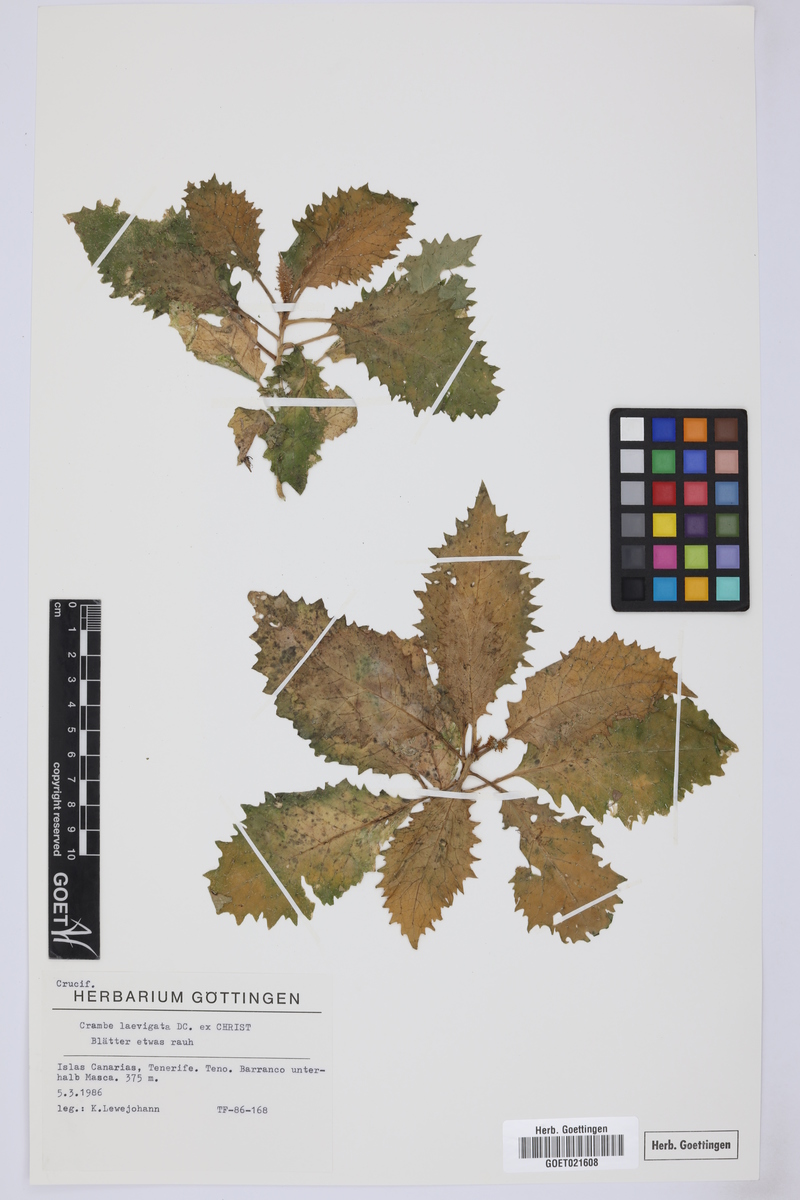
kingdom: Plantae
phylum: Tracheophyta
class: Magnoliopsida
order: Brassicales
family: Brassicaceae
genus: Crambe
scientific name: Crambe laevigata
